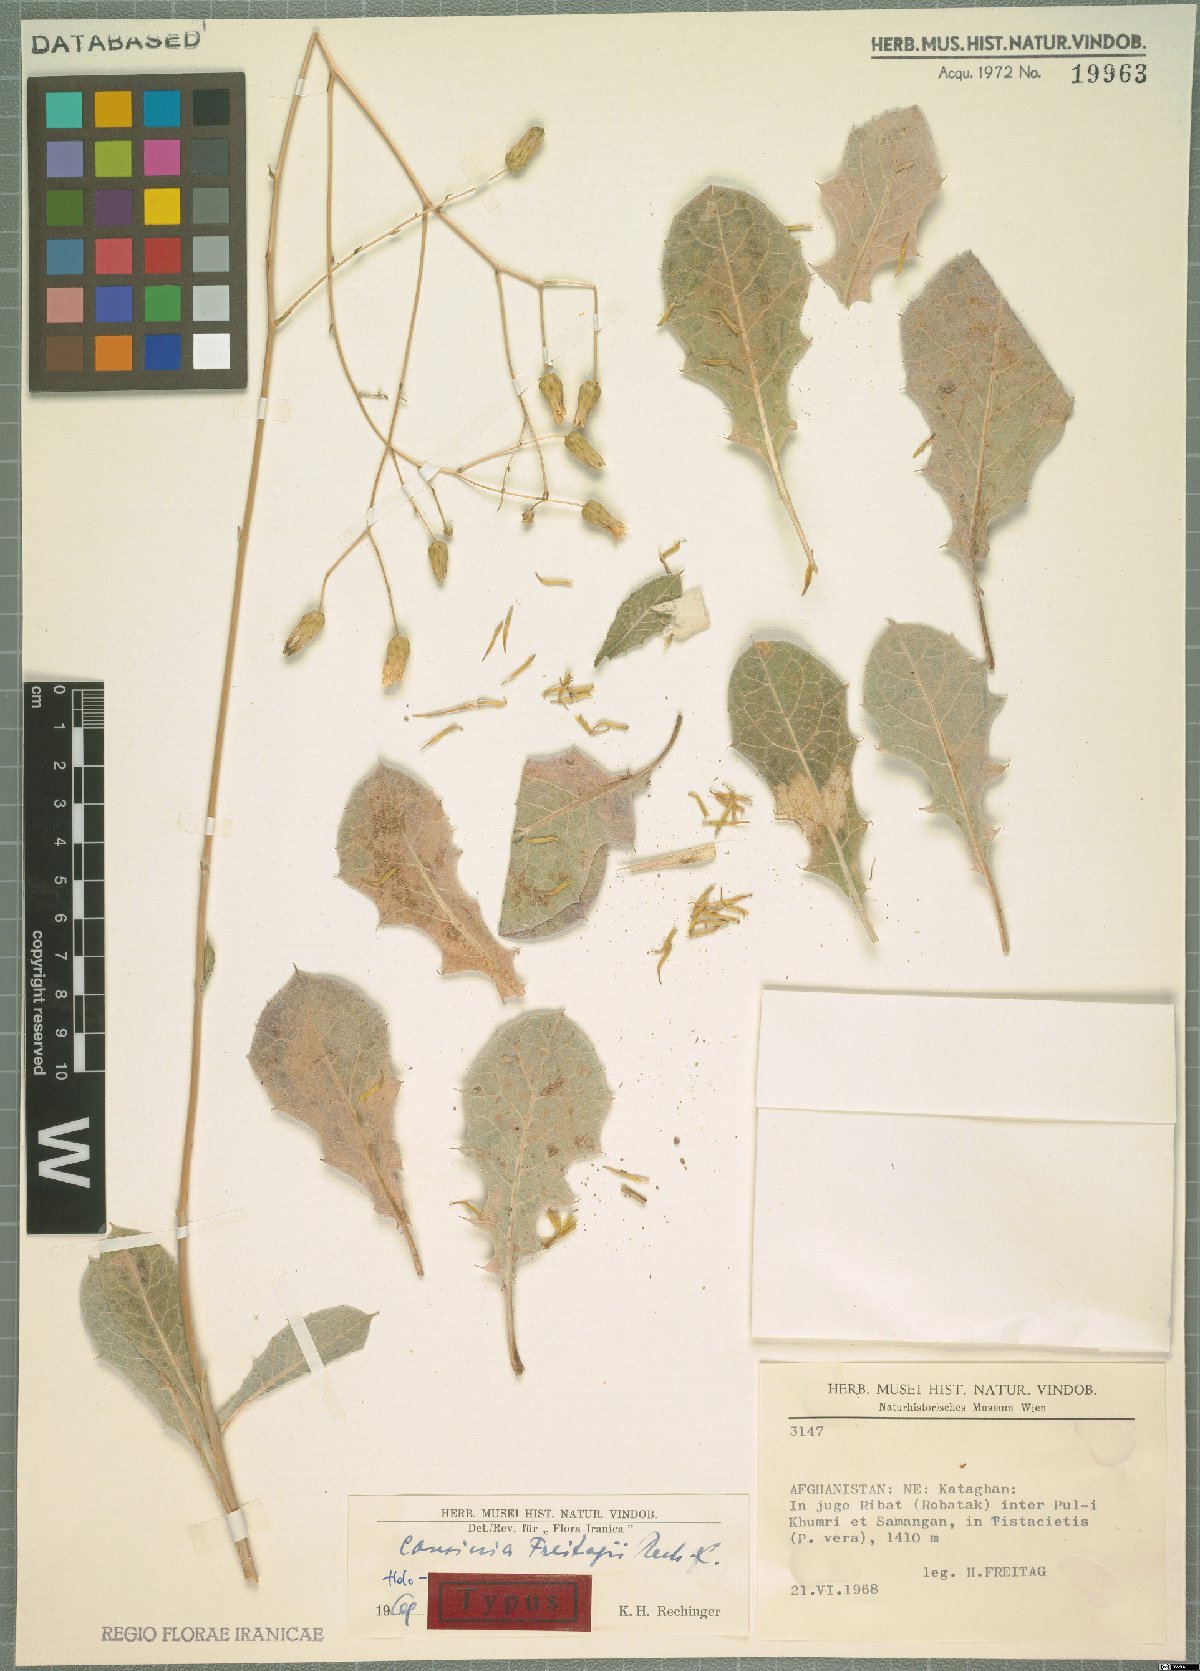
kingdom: Plantae
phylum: Tracheophyta
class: Magnoliopsida
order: Asterales
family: Asteraceae
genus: Cousinia
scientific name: Cousinia freitagii
